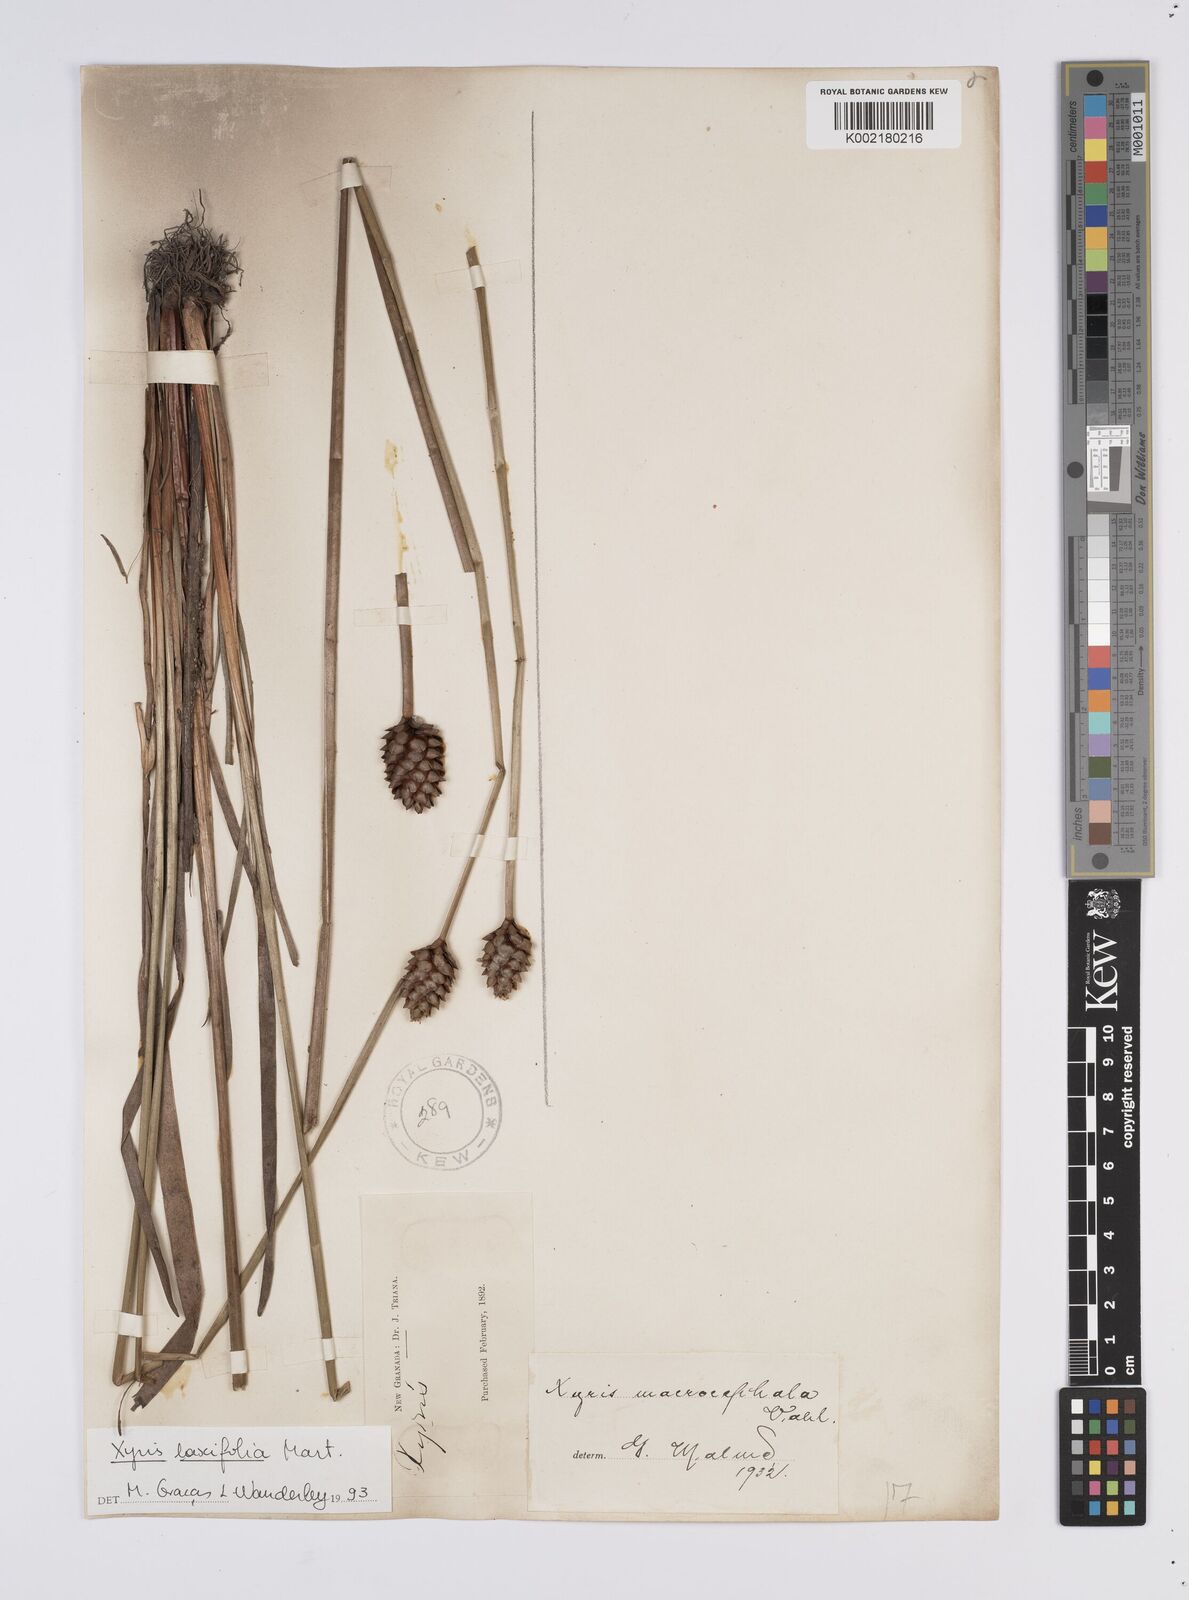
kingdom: Plantae
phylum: Tracheophyta
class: Liliopsida
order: Poales
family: Xyridaceae
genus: Xyris
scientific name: Xyris laxiflora
